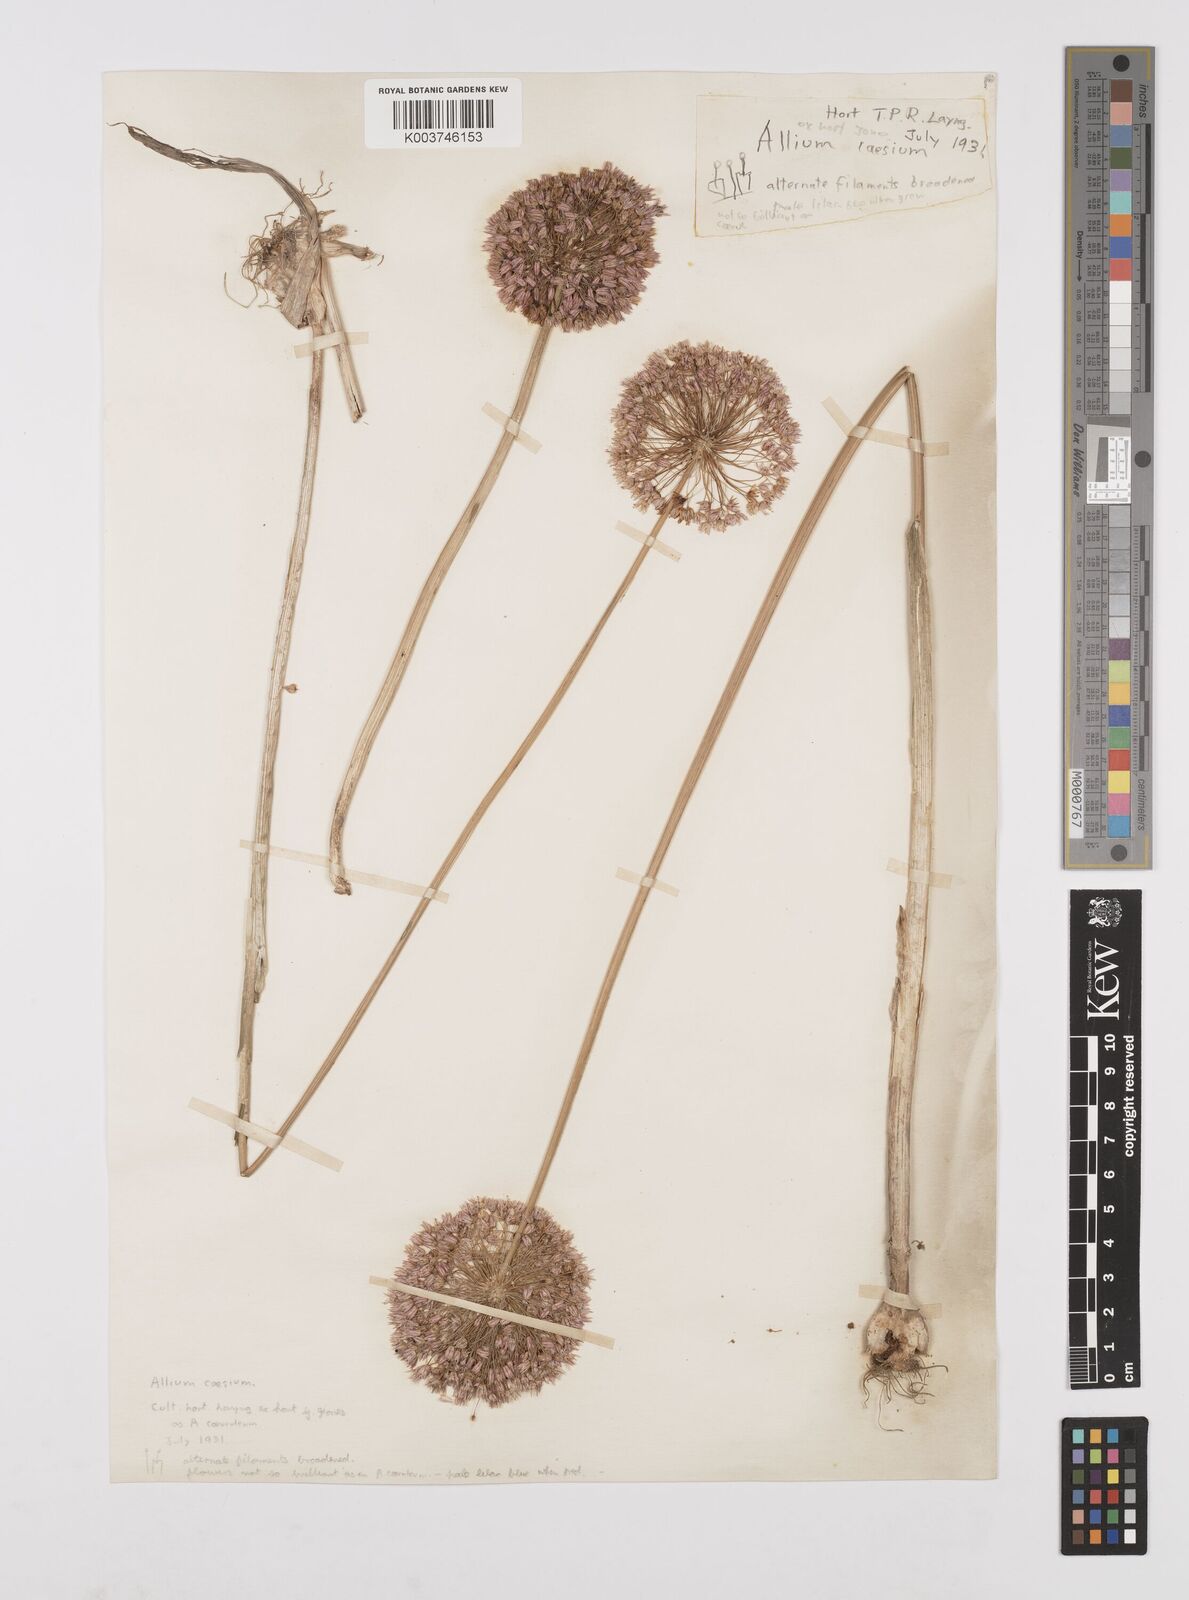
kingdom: Plantae
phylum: Tracheophyta
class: Liliopsida
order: Asparagales
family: Amaryllidaceae
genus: Allium
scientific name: Allium caesium
